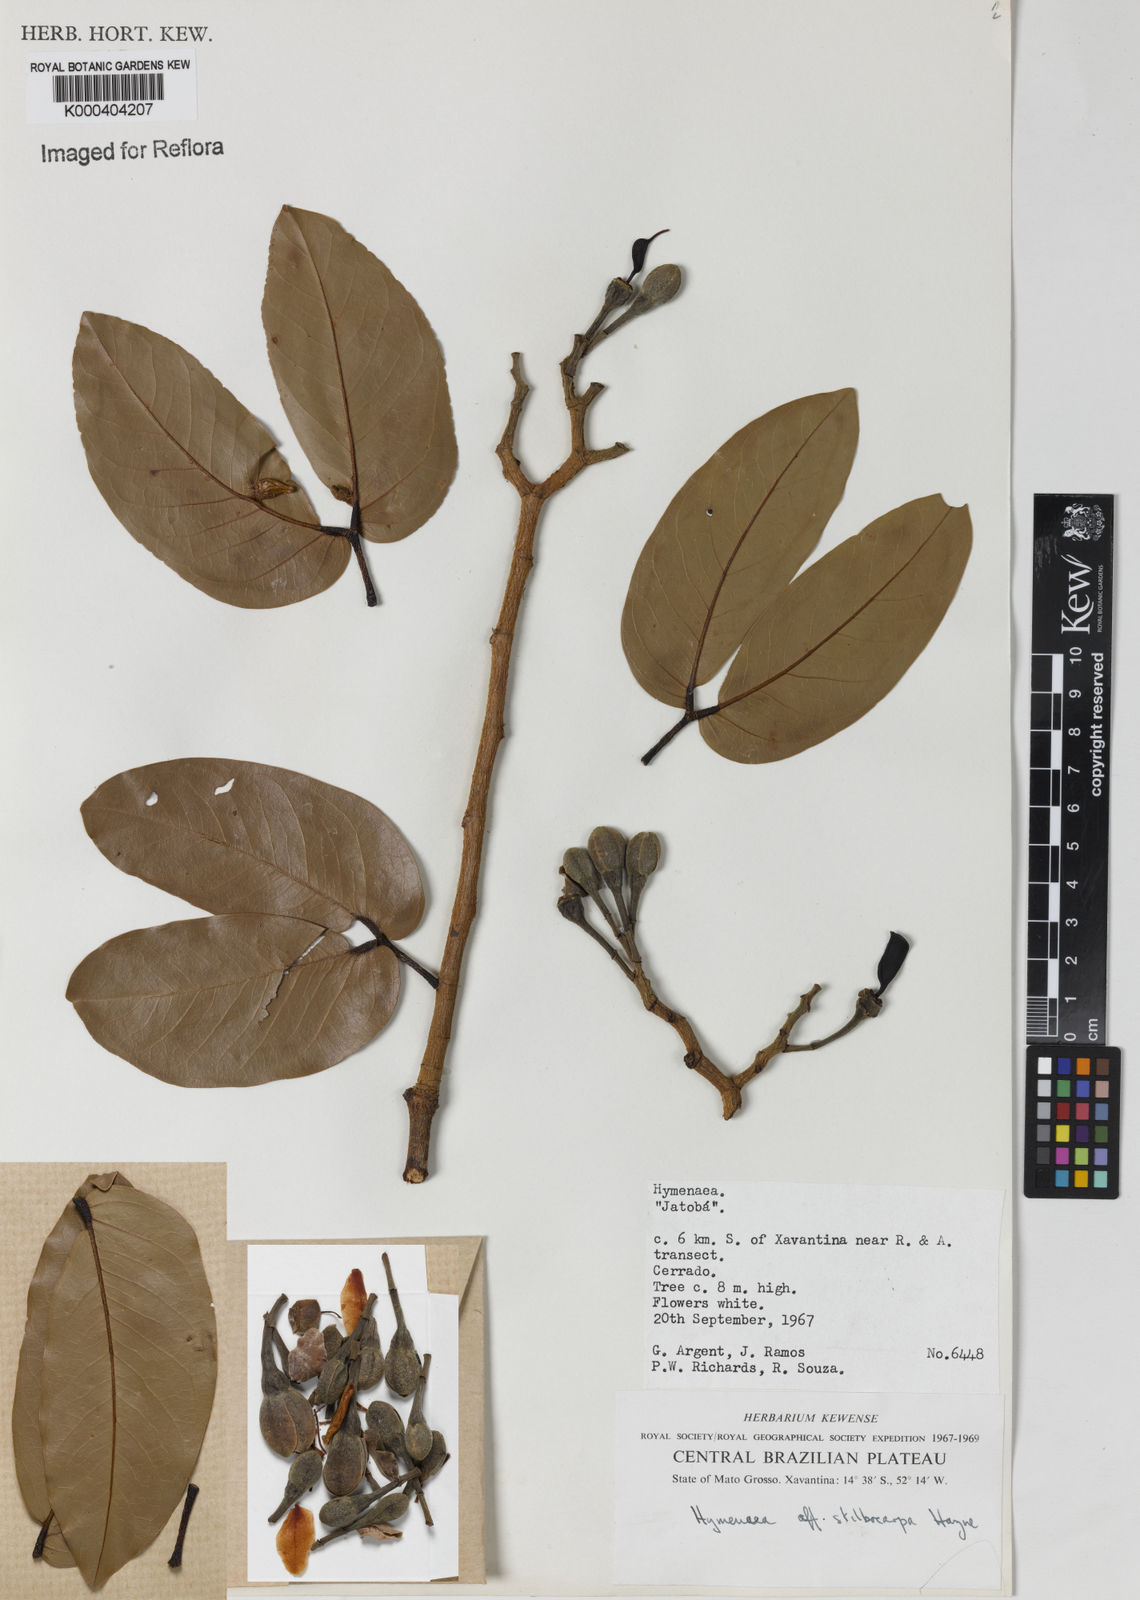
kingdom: Plantae
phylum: Tracheophyta
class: Magnoliopsida
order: Fabales
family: Fabaceae
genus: Hymenaea
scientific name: Hymenaea courbaril
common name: Brazilian copal
